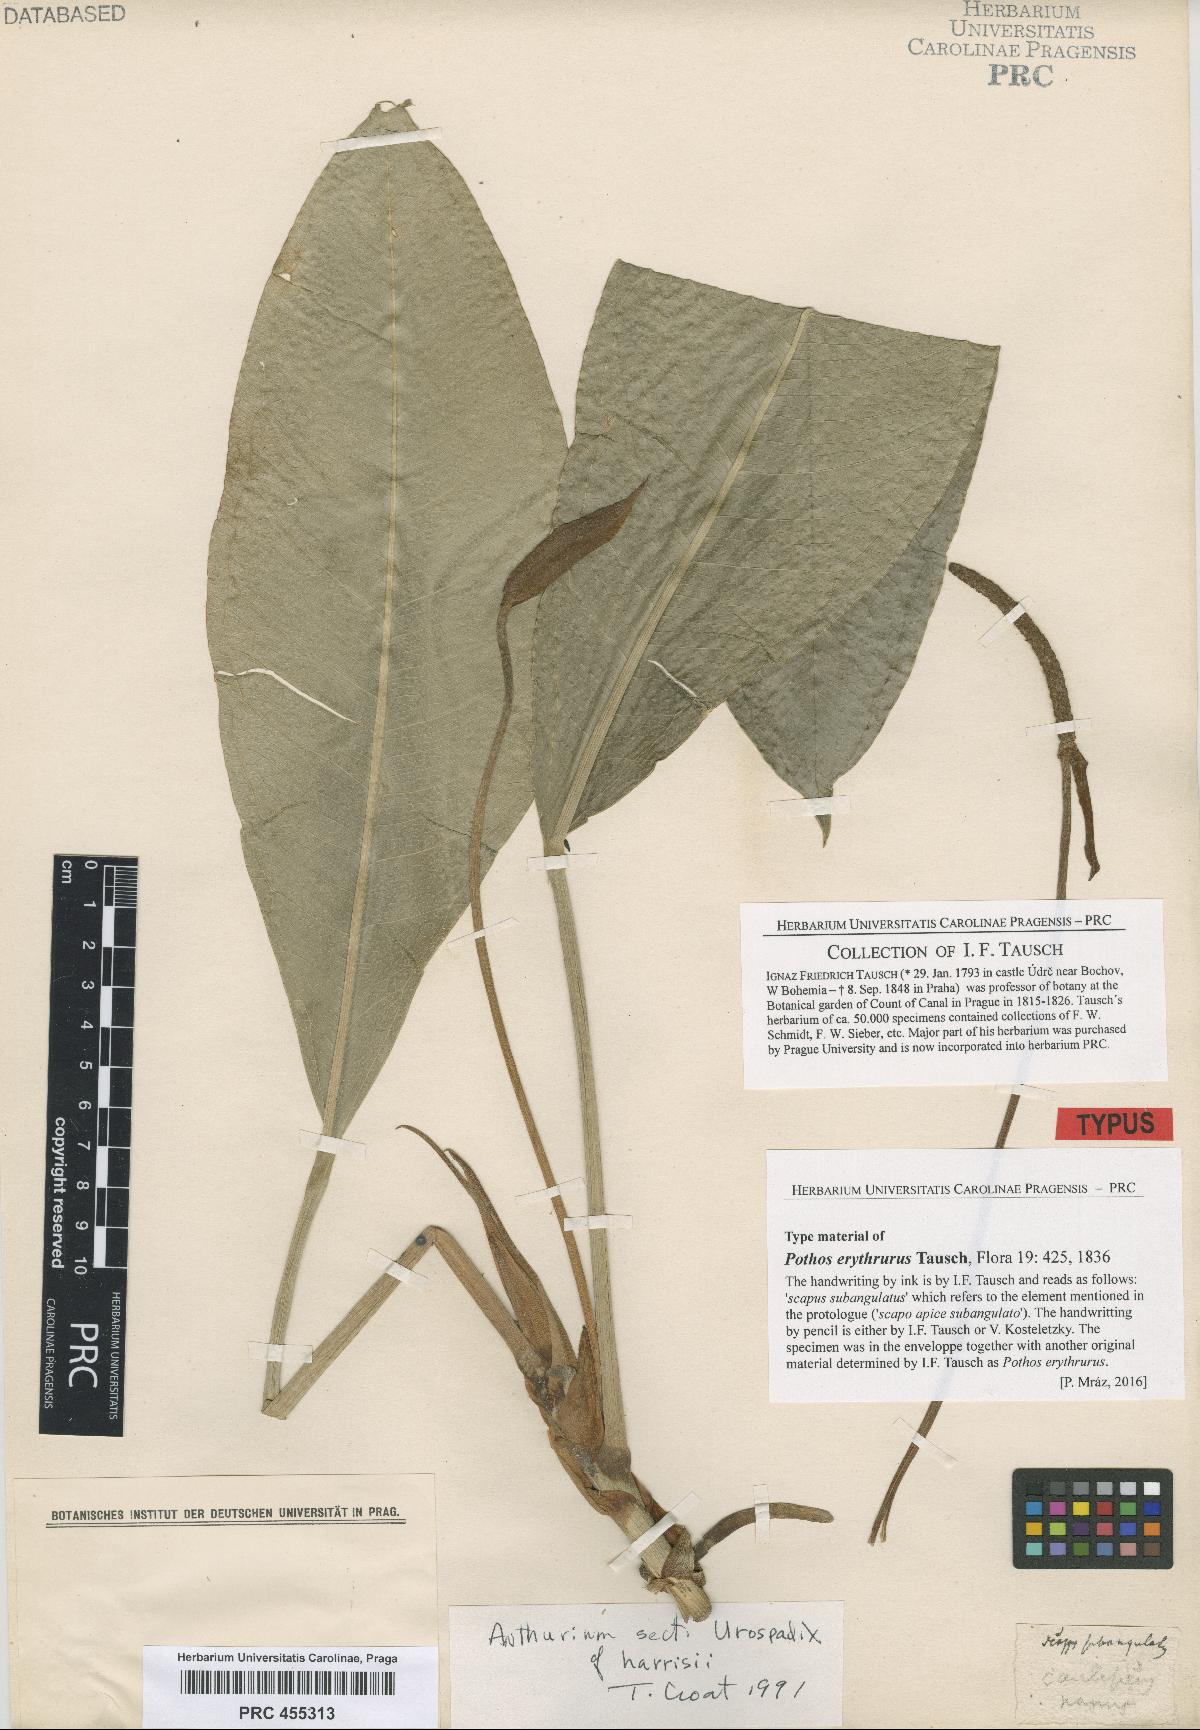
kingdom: Plantae
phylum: Tracheophyta
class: Liliopsida
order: Alismatales
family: Araceae
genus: Pothos
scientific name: Pothos erythrurus
